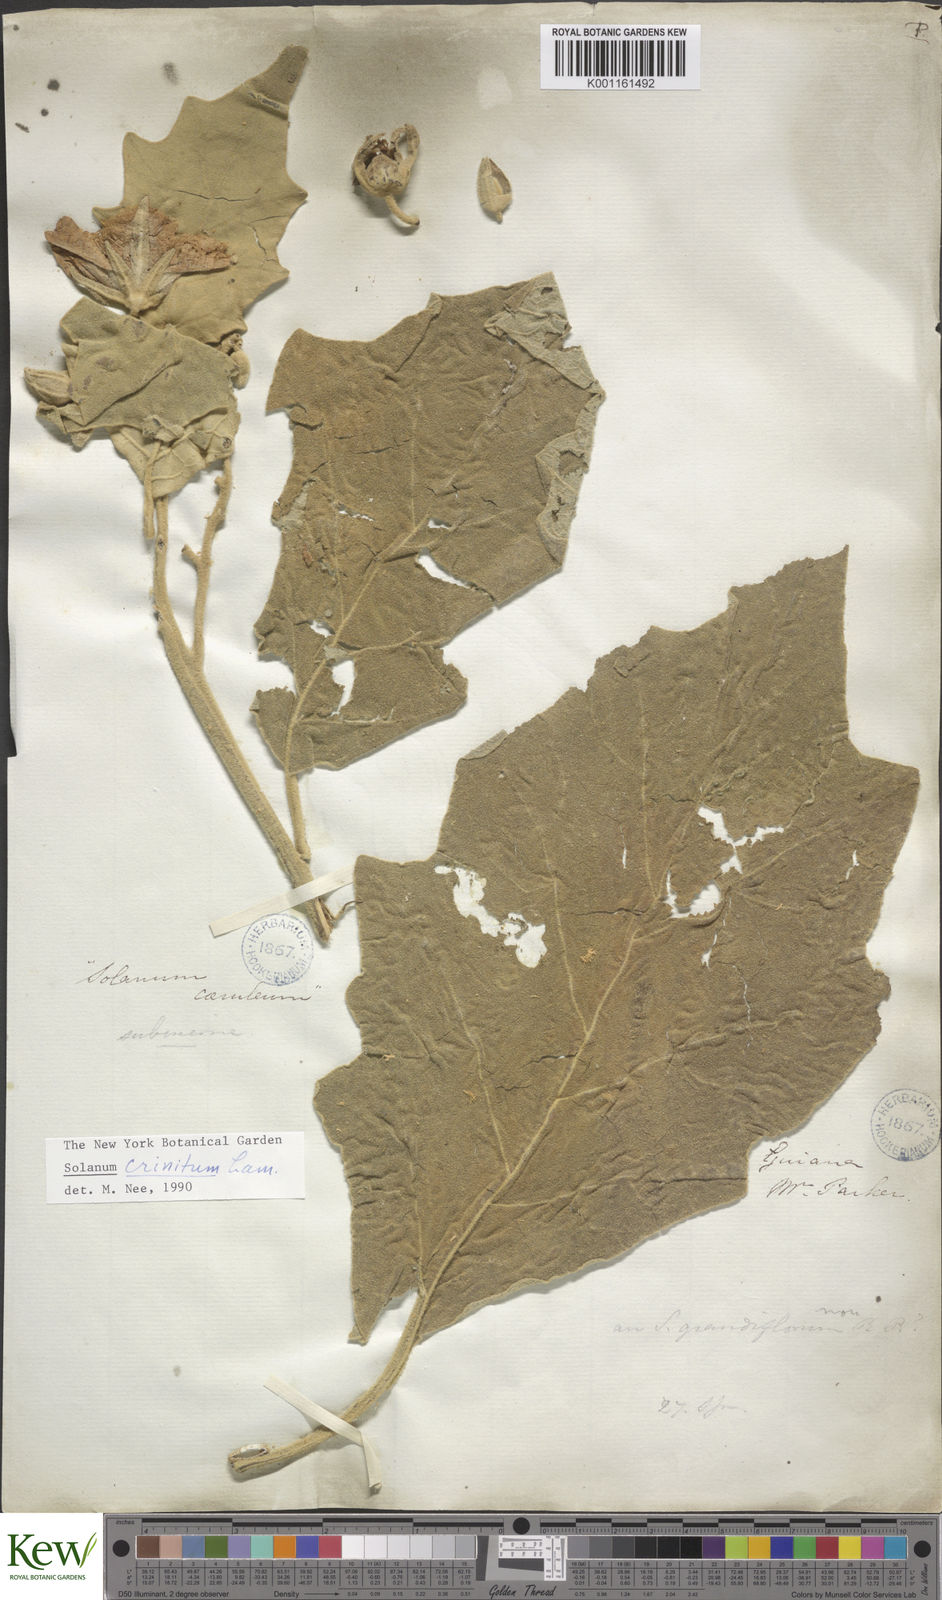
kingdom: Plantae
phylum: Tracheophyta
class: Magnoliopsida
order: Solanales
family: Solanaceae
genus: Solanum
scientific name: Solanum crinitum
